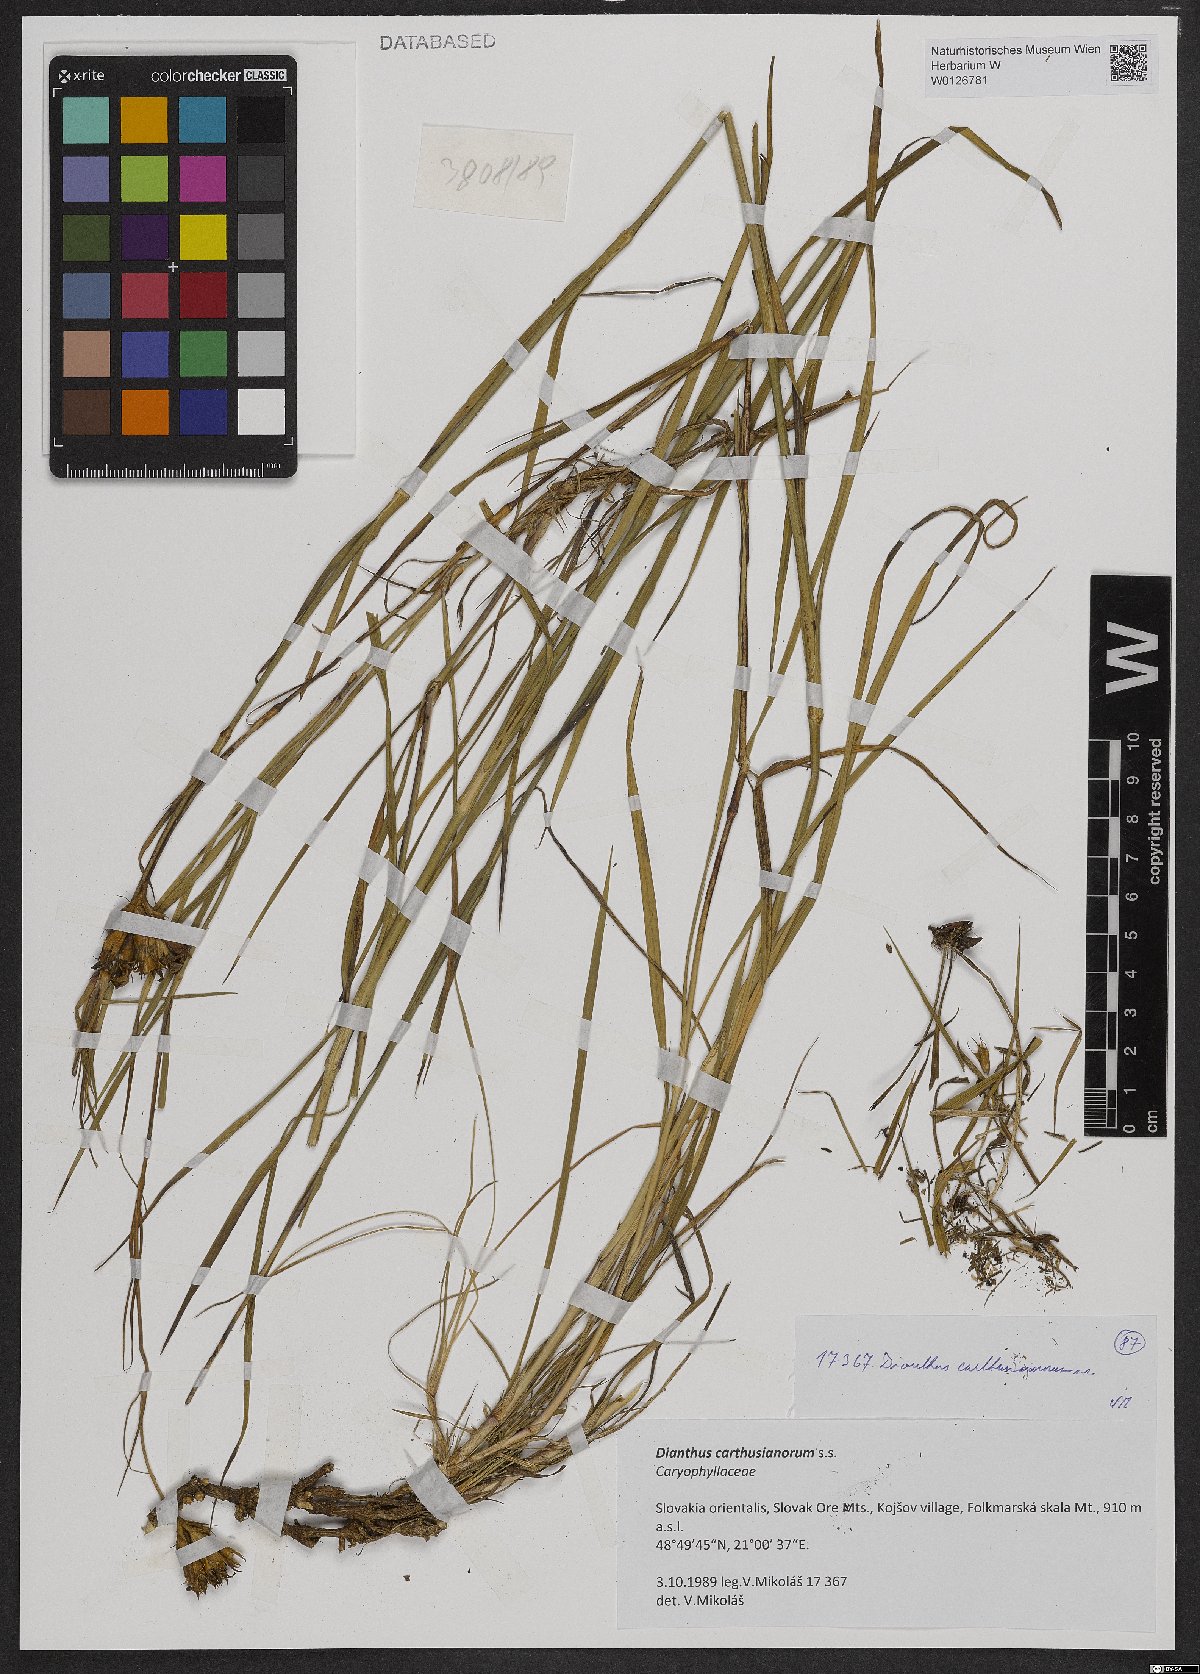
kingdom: Plantae
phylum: Tracheophyta
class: Magnoliopsida
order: Caryophyllales
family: Caryophyllaceae
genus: Dianthus
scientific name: Dianthus carthusianorum
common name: Carthusian pink
